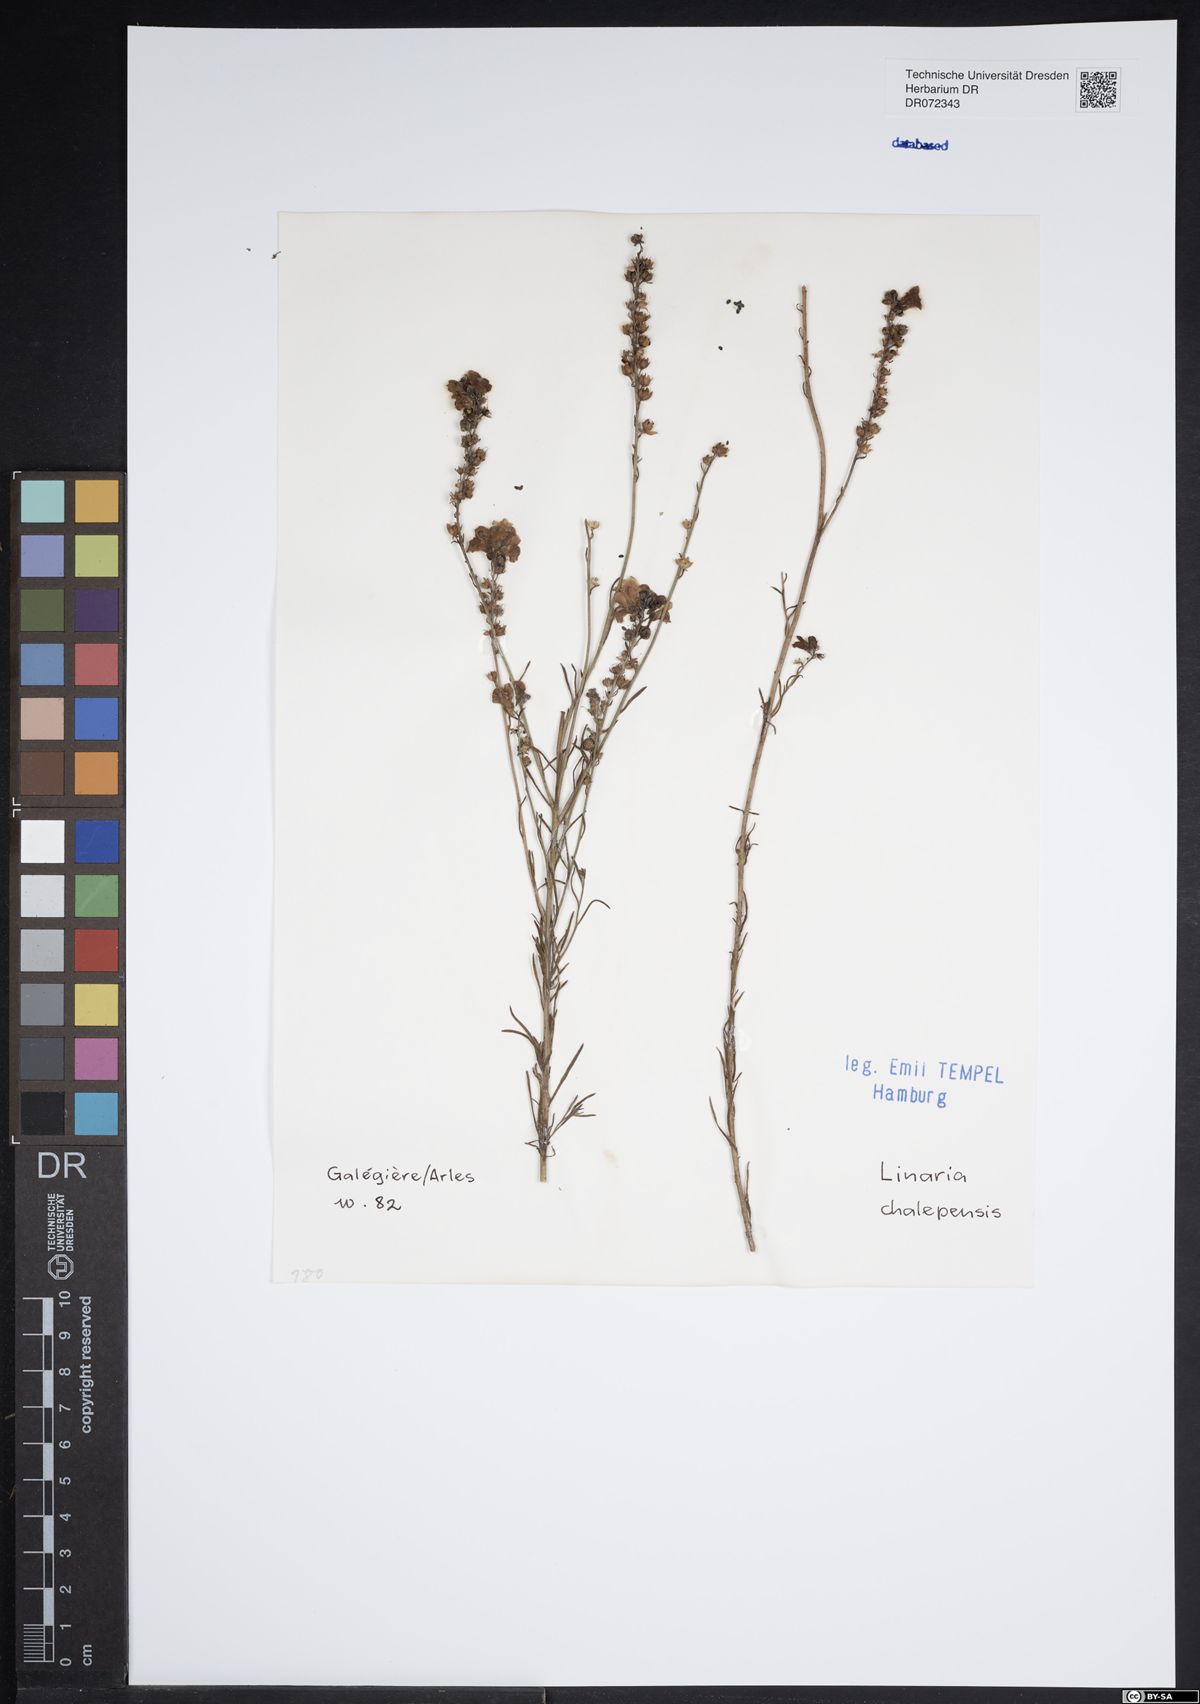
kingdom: Plantae
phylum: Tracheophyta
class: Magnoliopsida
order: Lamiales
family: Plantaginaceae
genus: Linaria
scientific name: Linaria chalepensis
